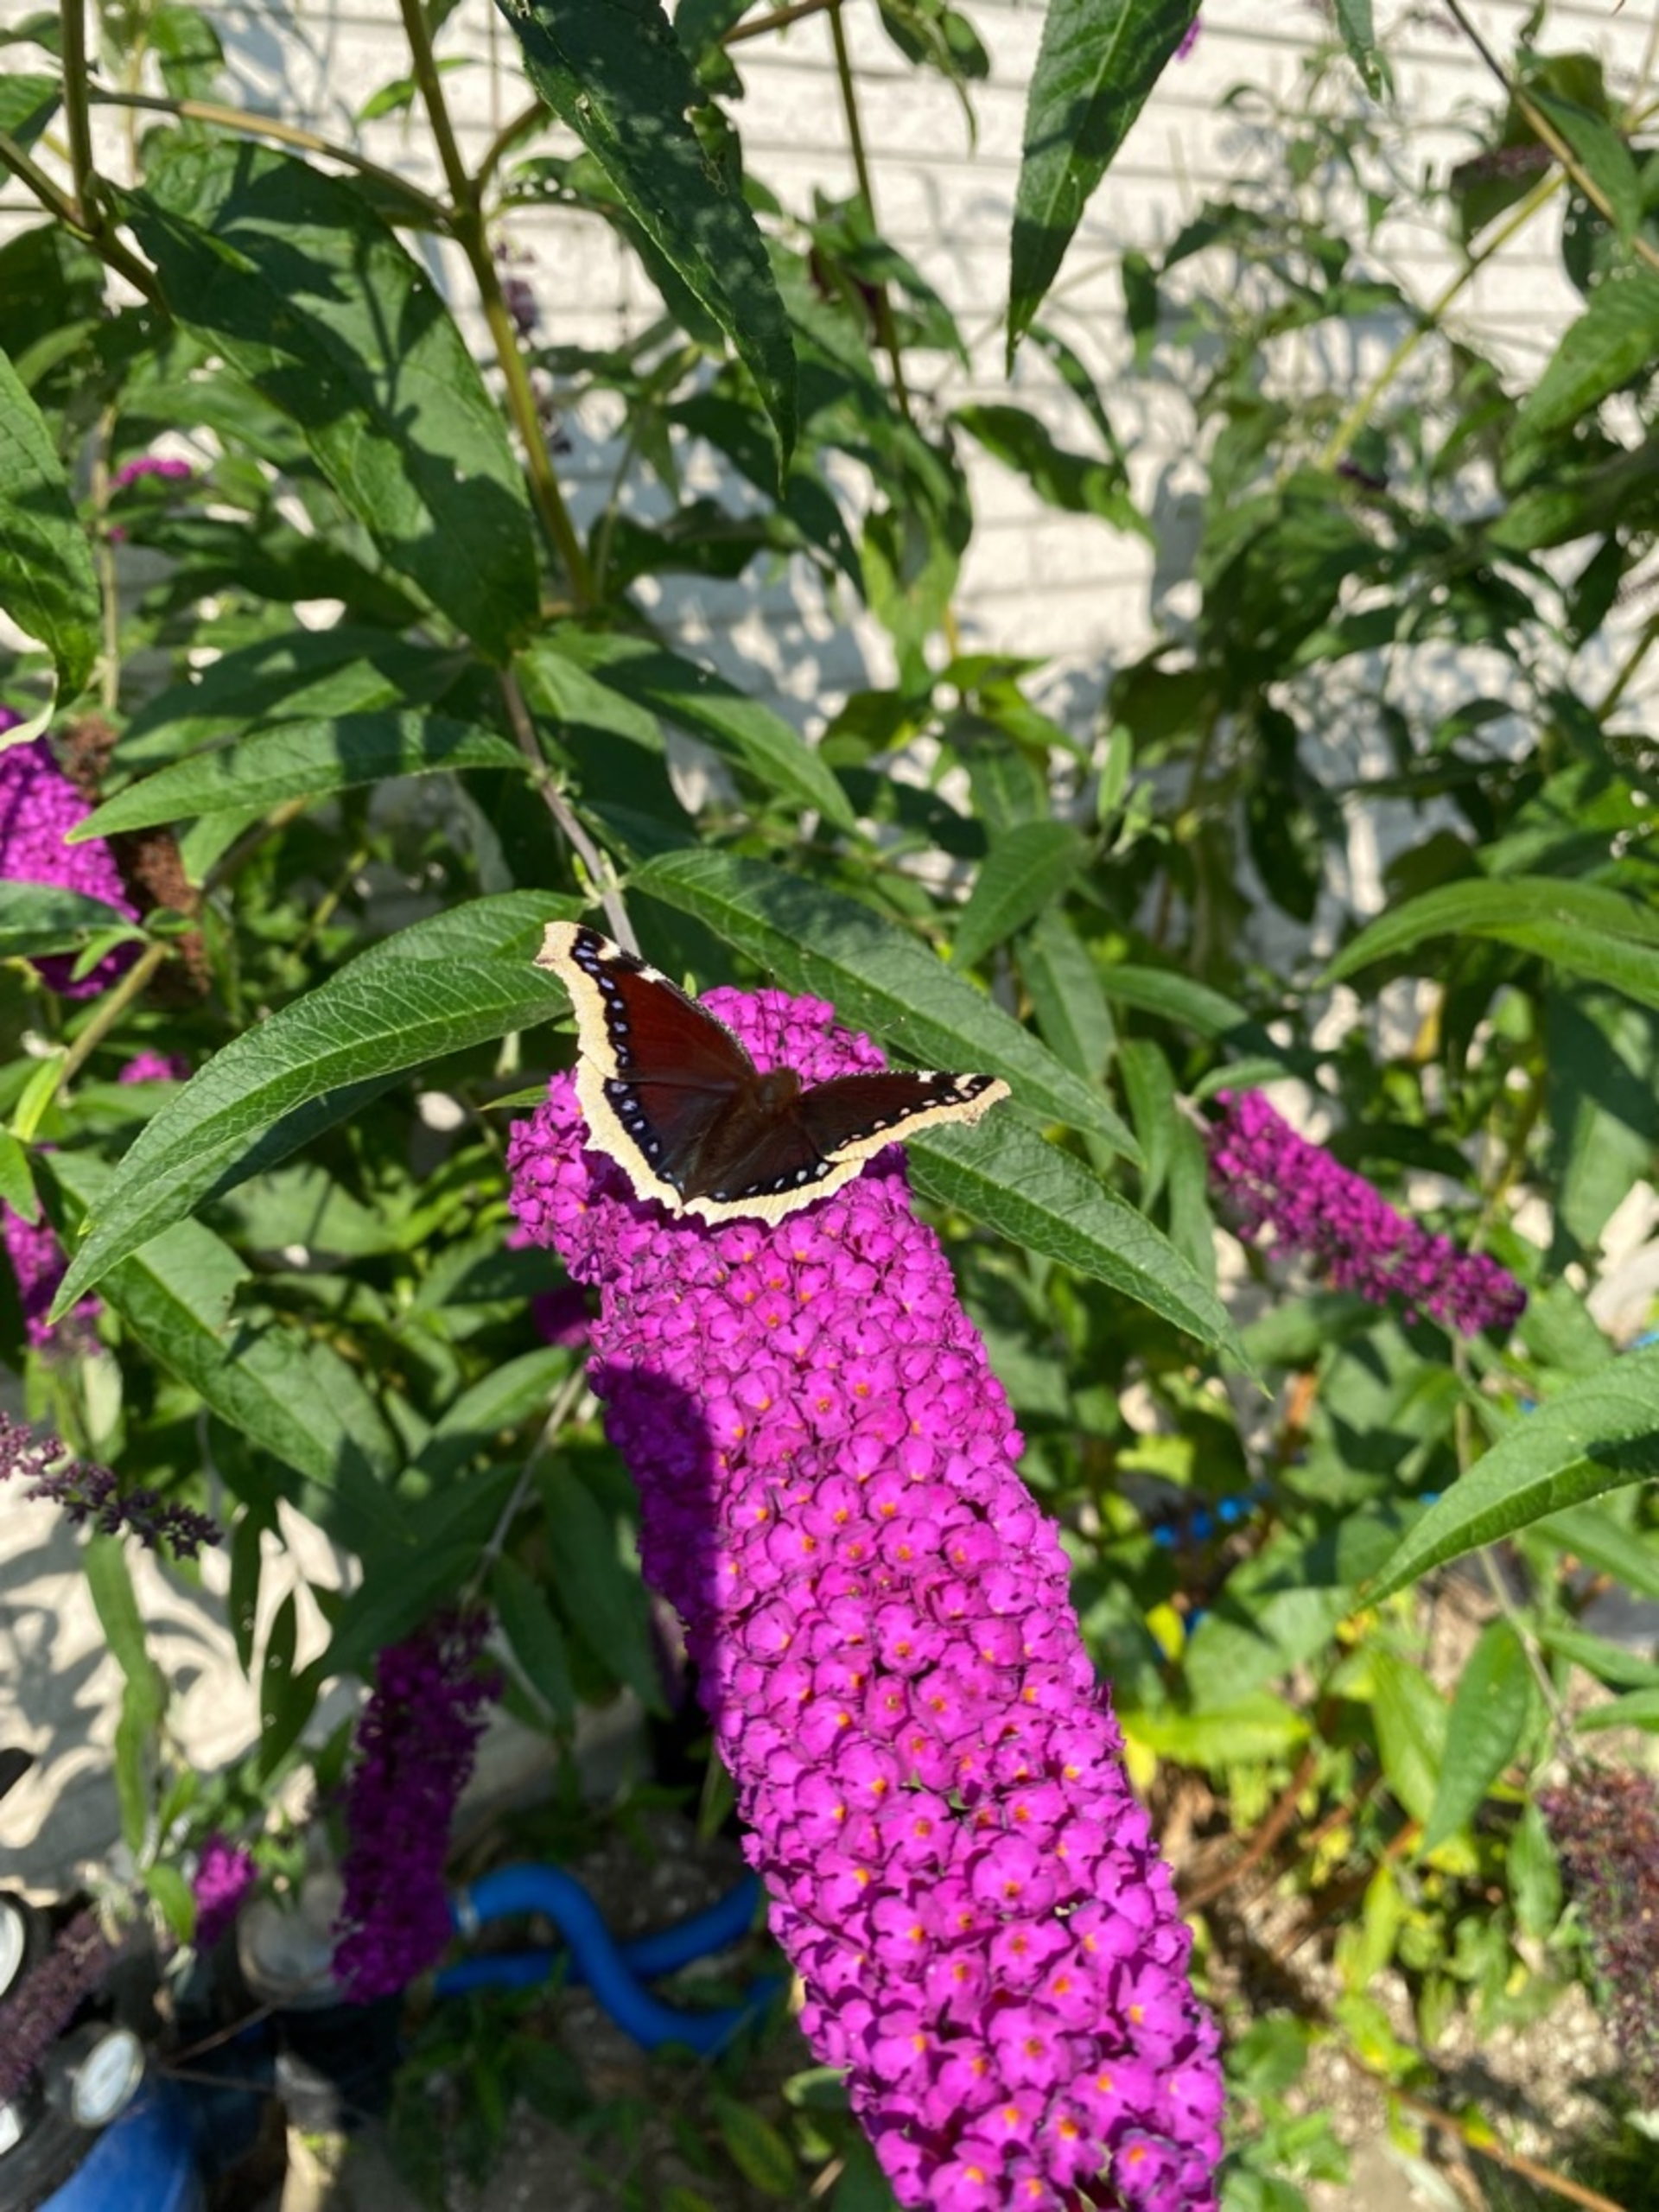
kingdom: Animalia
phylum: Arthropoda
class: Insecta
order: Lepidoptera
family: Nymphalidae
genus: Nymphalis
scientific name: Nymphalis antiopa
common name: Sørgekåbe
